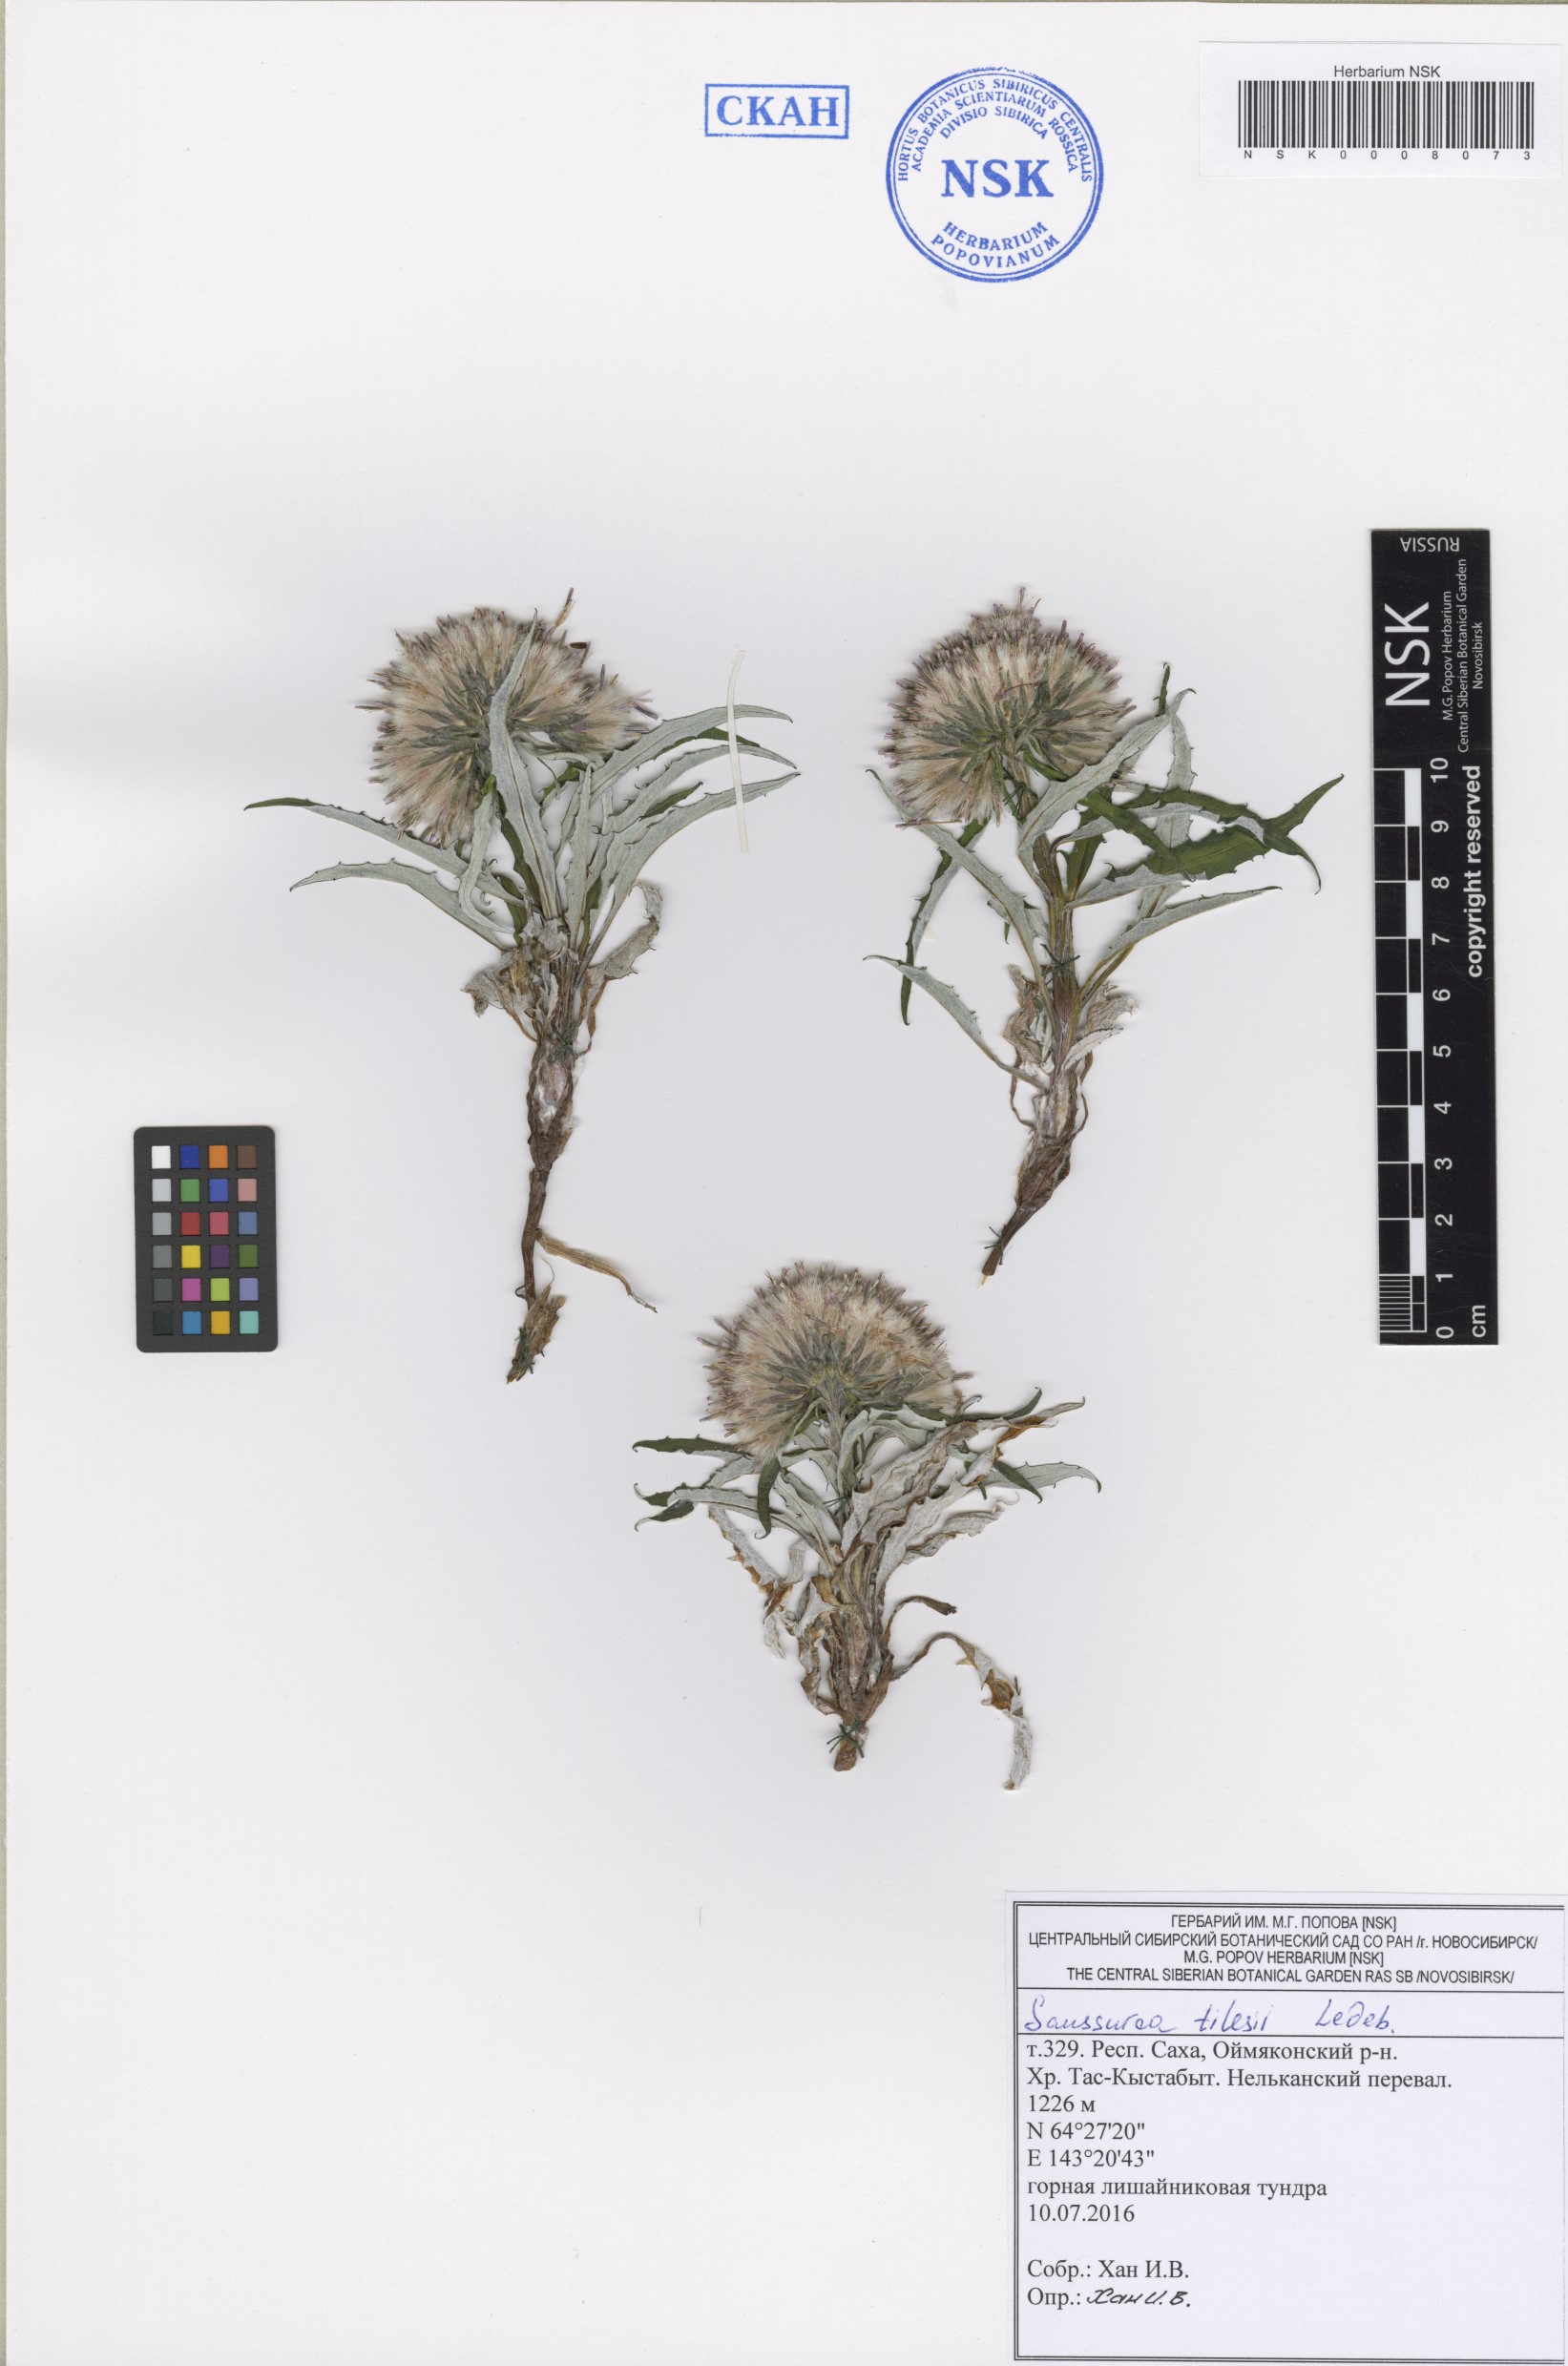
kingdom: Plantae
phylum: Tracheophyta
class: Magnoliopsida
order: Asterales
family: Asteraceae
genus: Saussurea
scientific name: Saussurea tilesii
